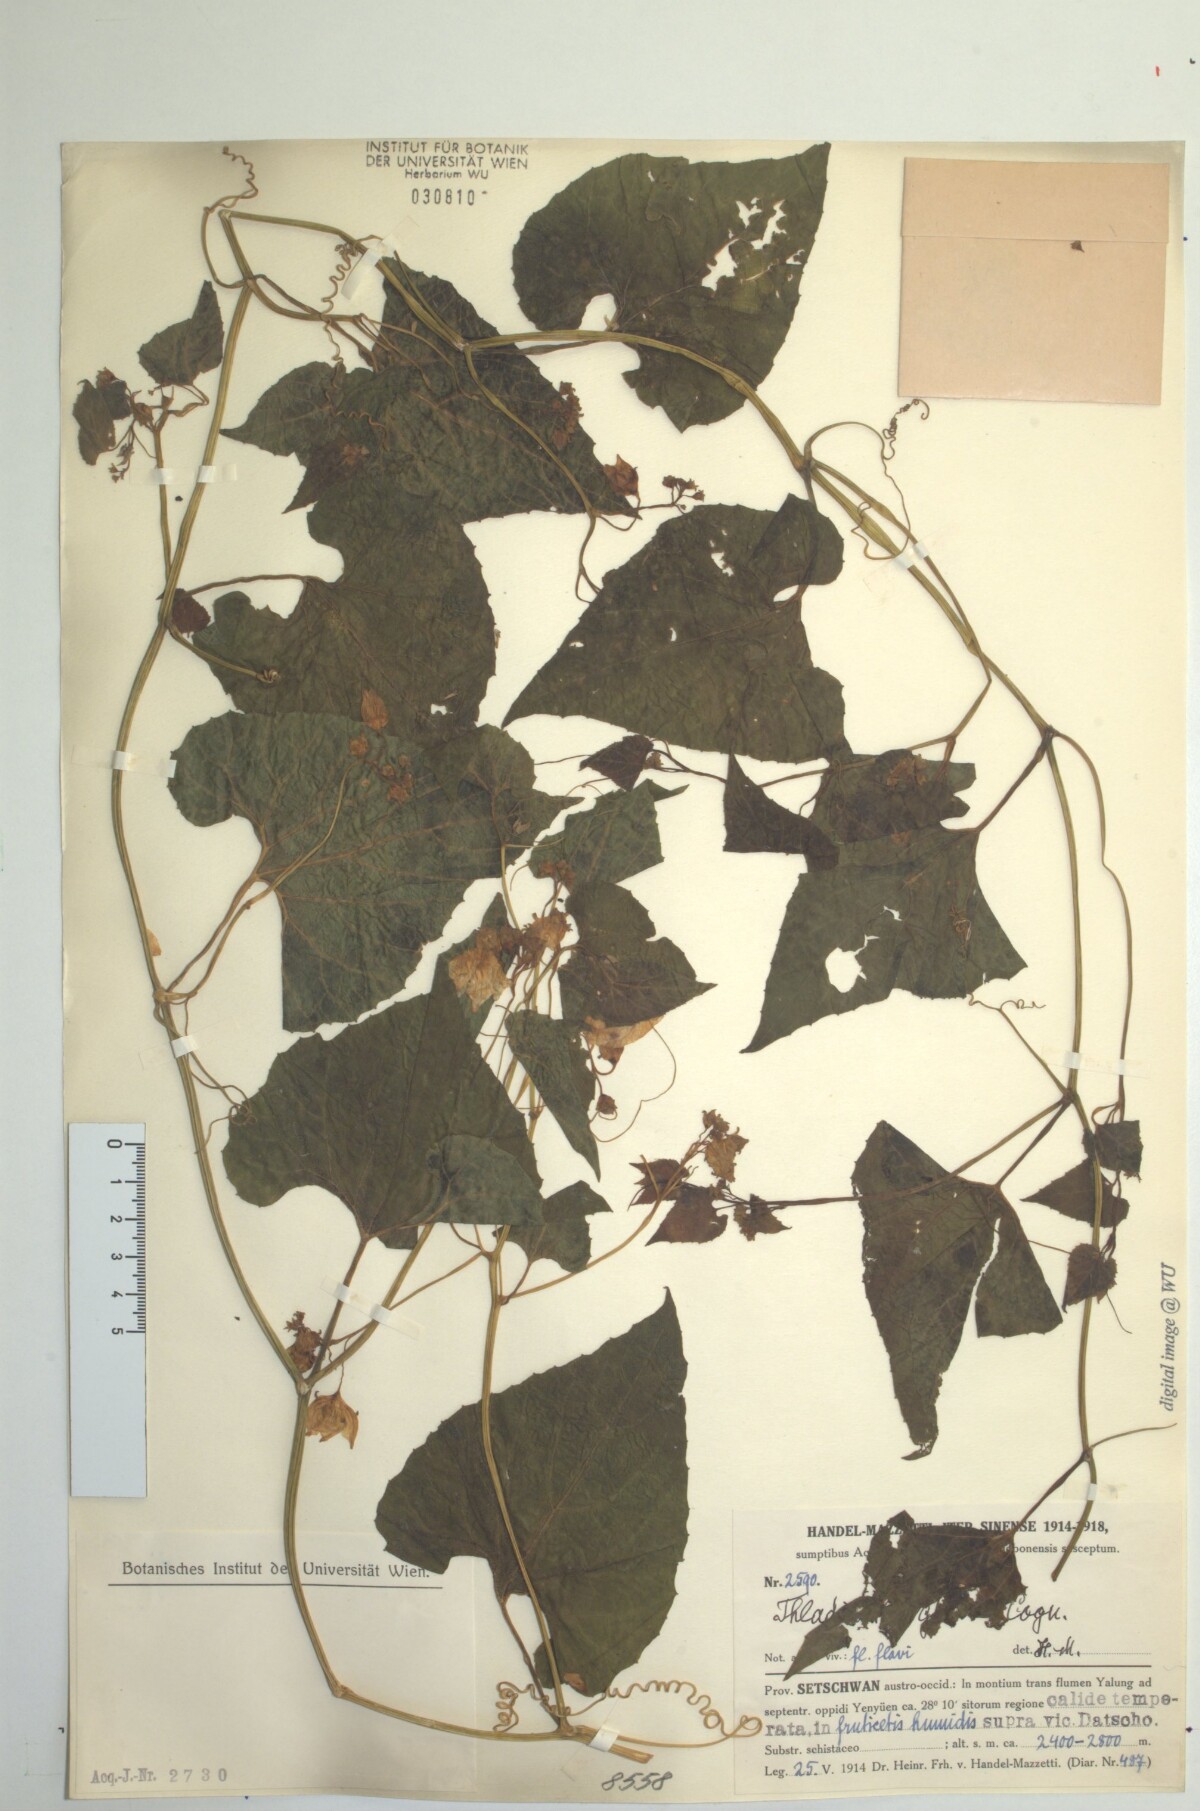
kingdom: Plantae
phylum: Tracheophyta
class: Magnoliopsida
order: Cucurbitales
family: Cucurbitaceae
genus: Thladiantha
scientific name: Thladiantha oliveri
